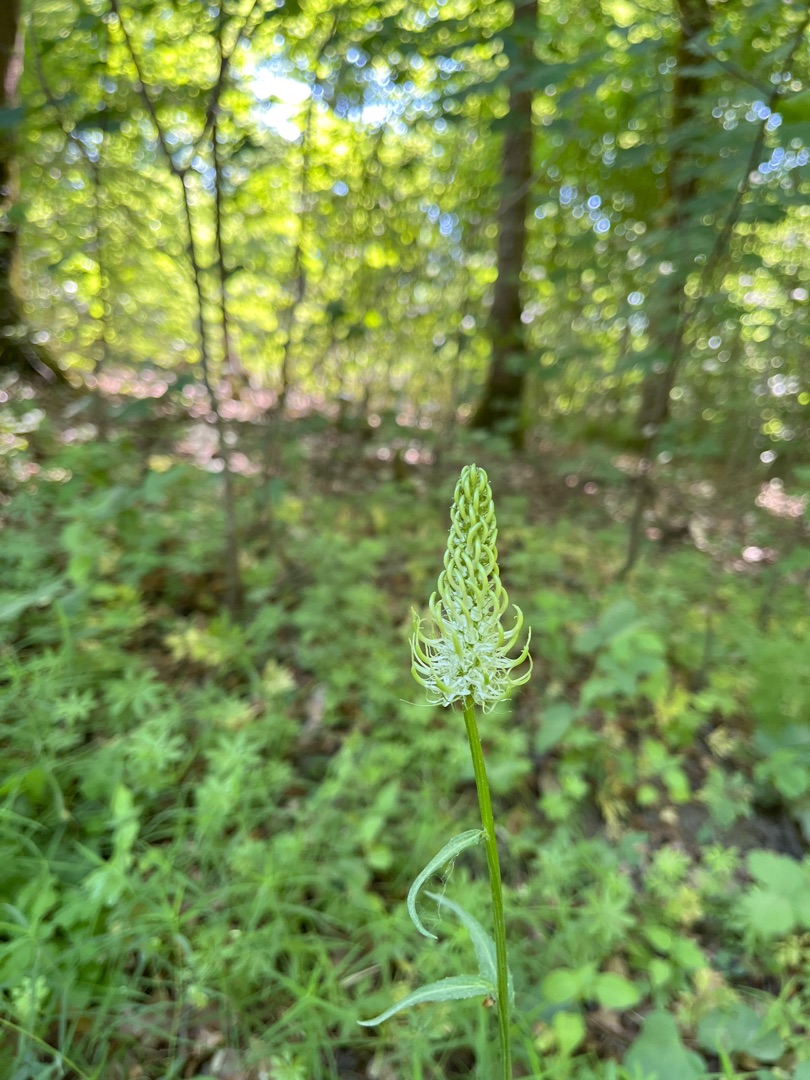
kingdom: Plantae
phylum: Tracheophyta
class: Magnoliopsida
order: Asterales
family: Campanulaceae
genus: Phyteuma
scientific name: Phyteuma spicatum
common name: Aks-rapunsel
